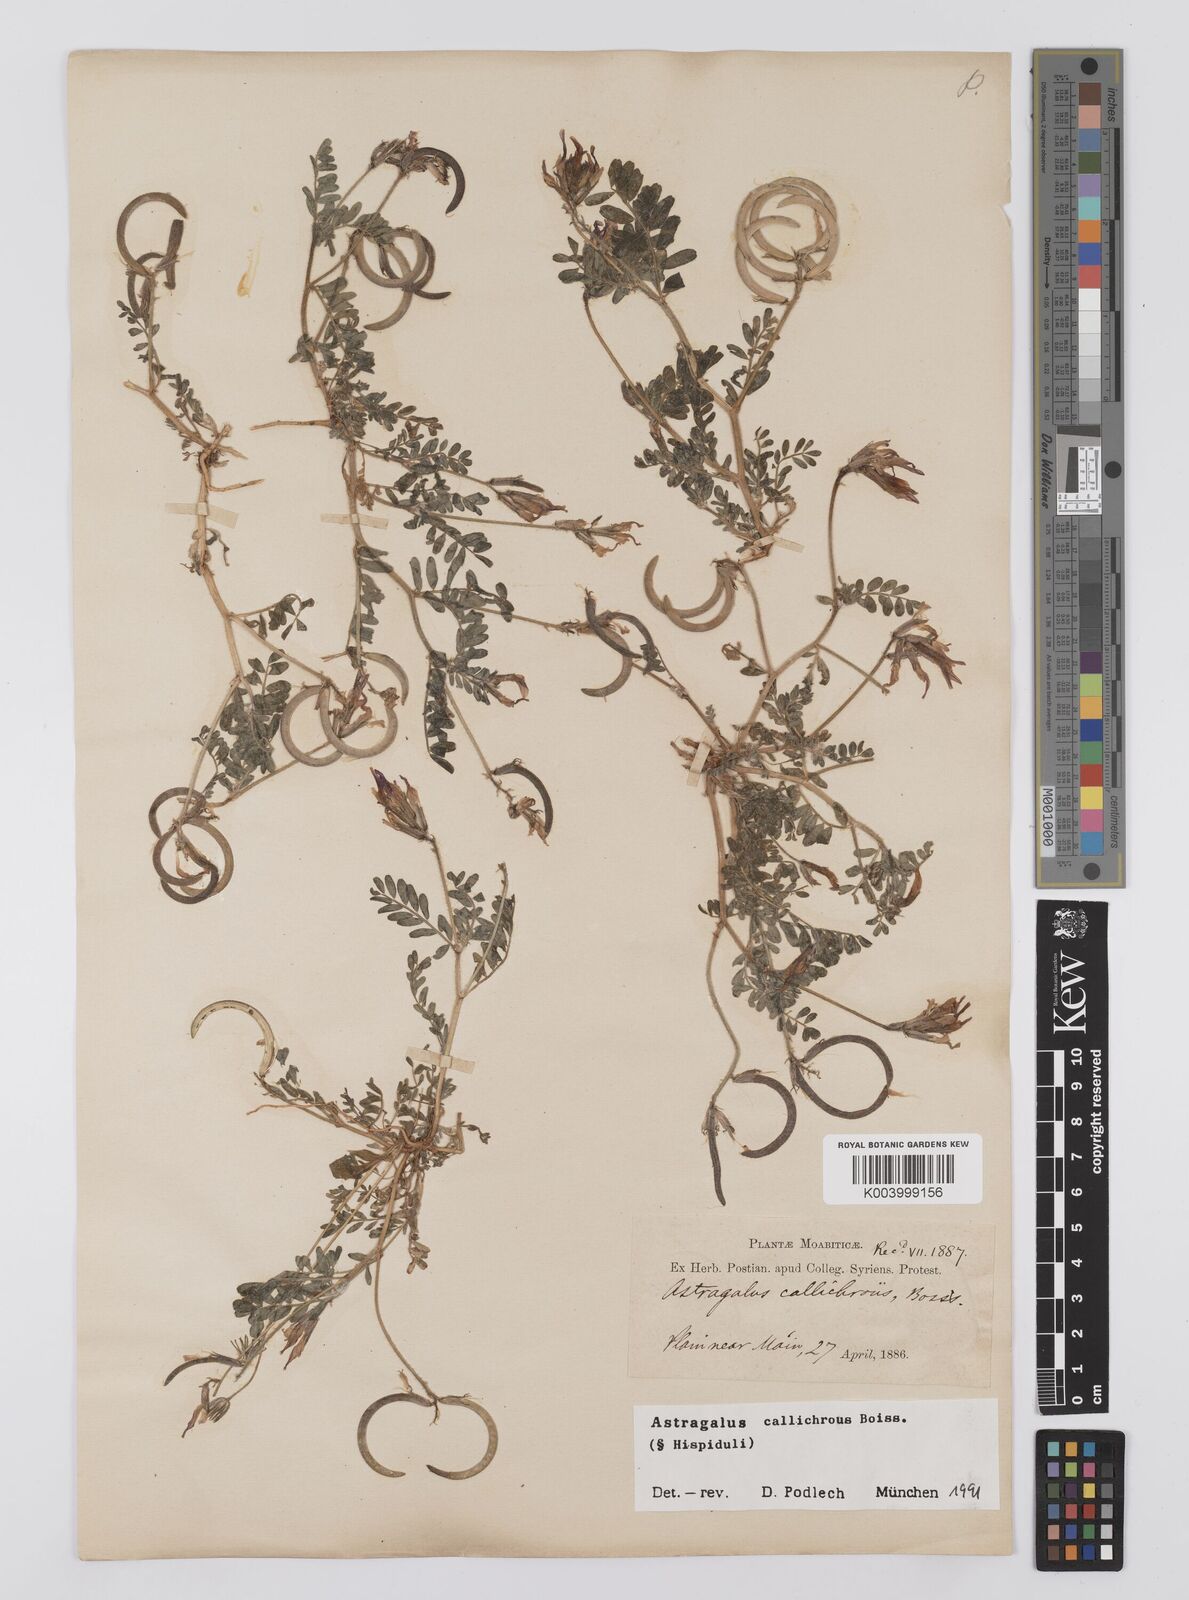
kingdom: Plantae
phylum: Tracheophyta
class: Magnoliopsida
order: Fabales
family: Fabaceae
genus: Astragalus
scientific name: Astragalus callichrous
